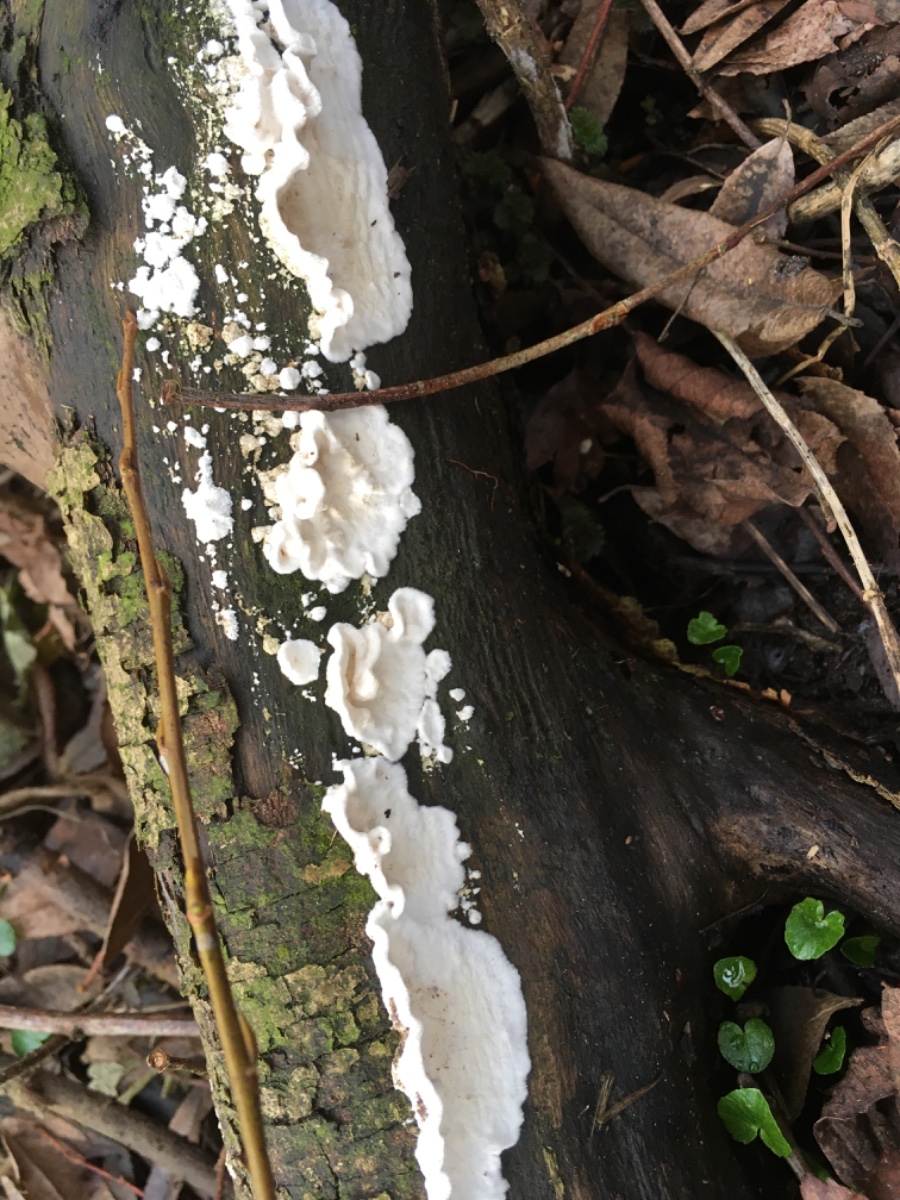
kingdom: Fungi
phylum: Basidiomycota
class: Agaricomycetes
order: Polyporales
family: Irpicaceae
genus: Byssomerulius
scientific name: Byssomerulius corium
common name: læder-åresvamp
